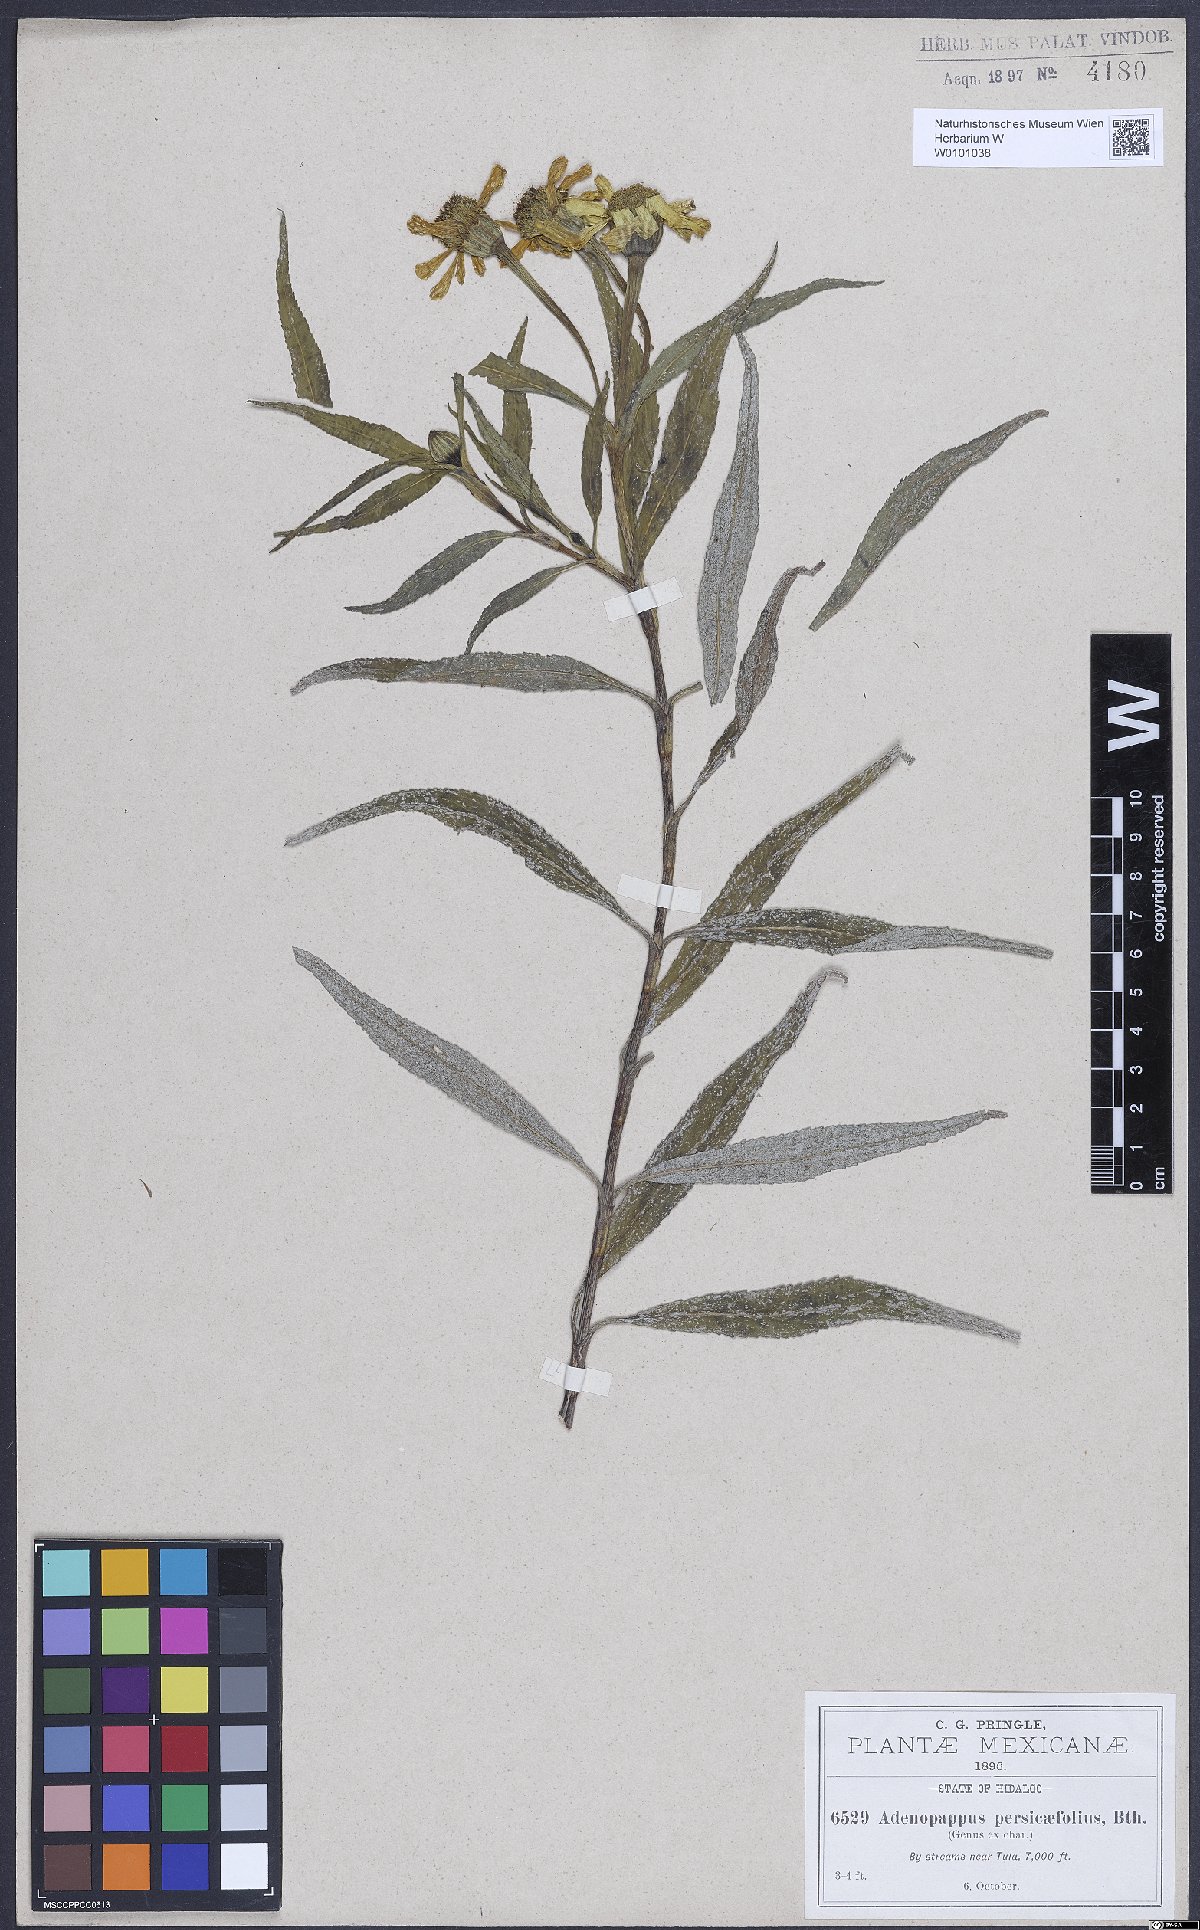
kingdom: Plantae
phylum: Tracheophyta
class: Magnoliopsida
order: Asterales
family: Asteraceae
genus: Tagetes
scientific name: Tagetes persicifolia
